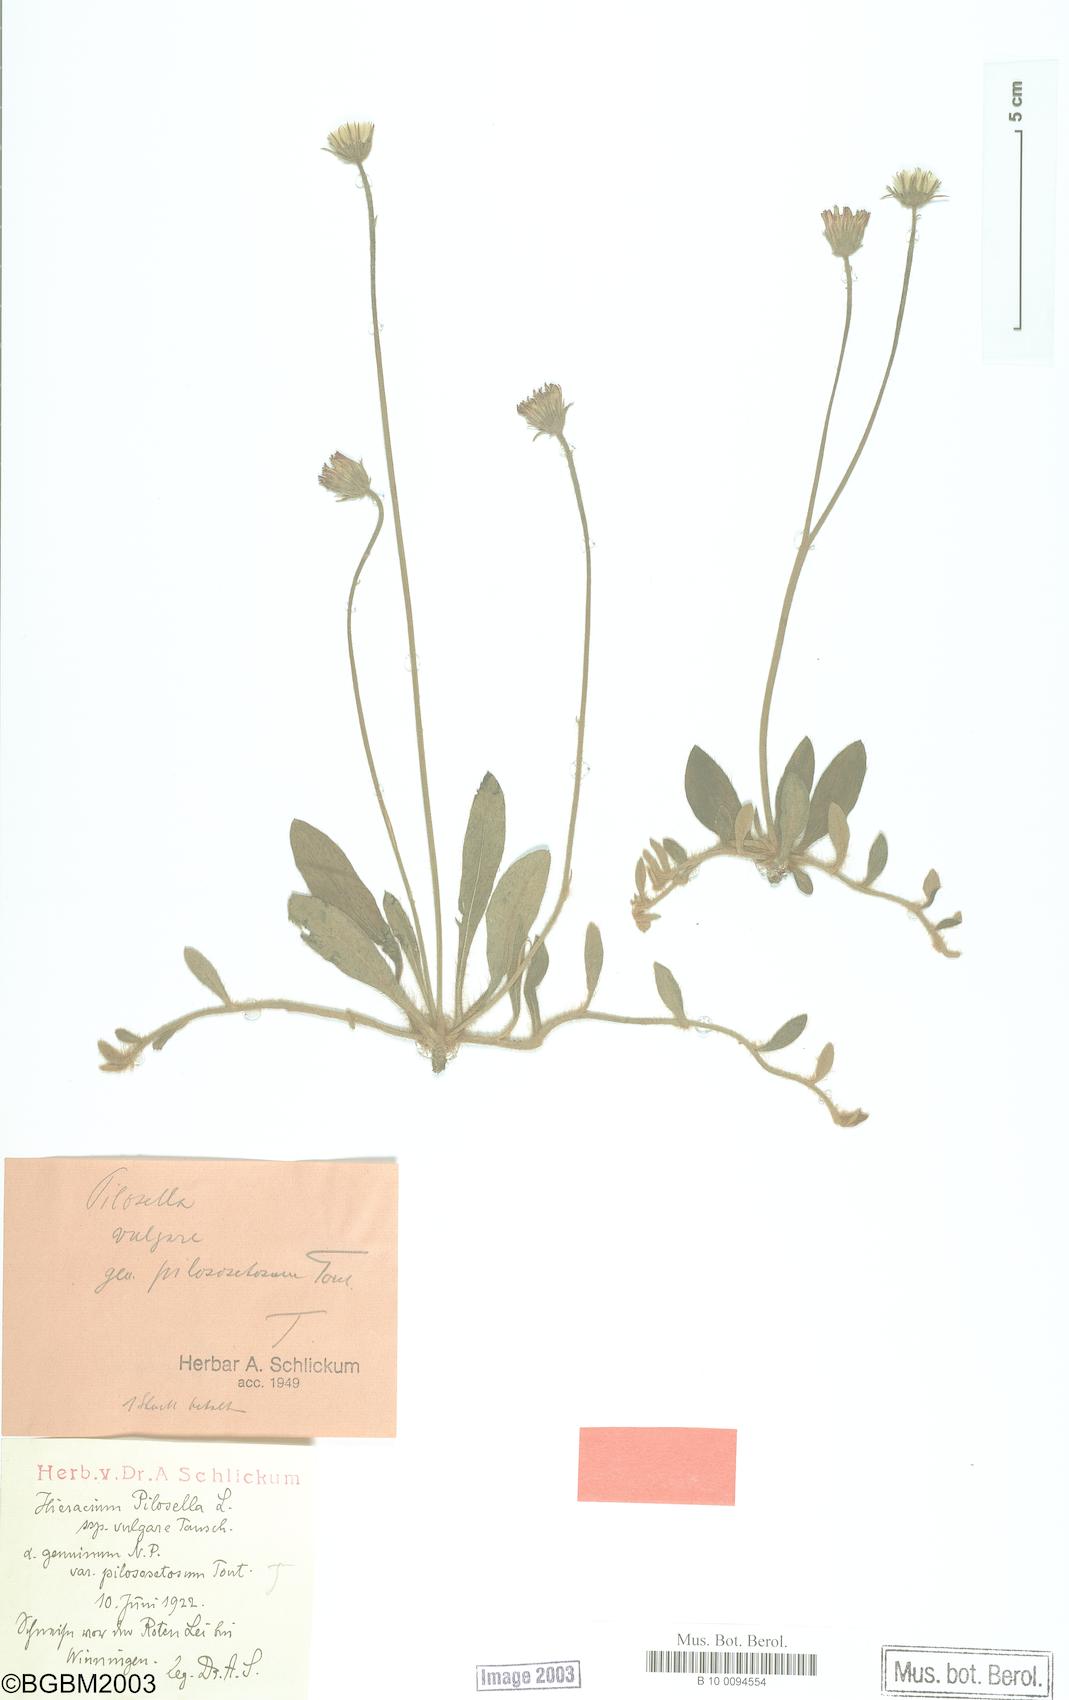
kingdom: Plantae
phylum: Tracheophyta
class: Magnoliopsida
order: Asterales
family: Asteraceae
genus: Pilosella
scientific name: Pilosella officinarum
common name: Mouse-ear hawkweed
